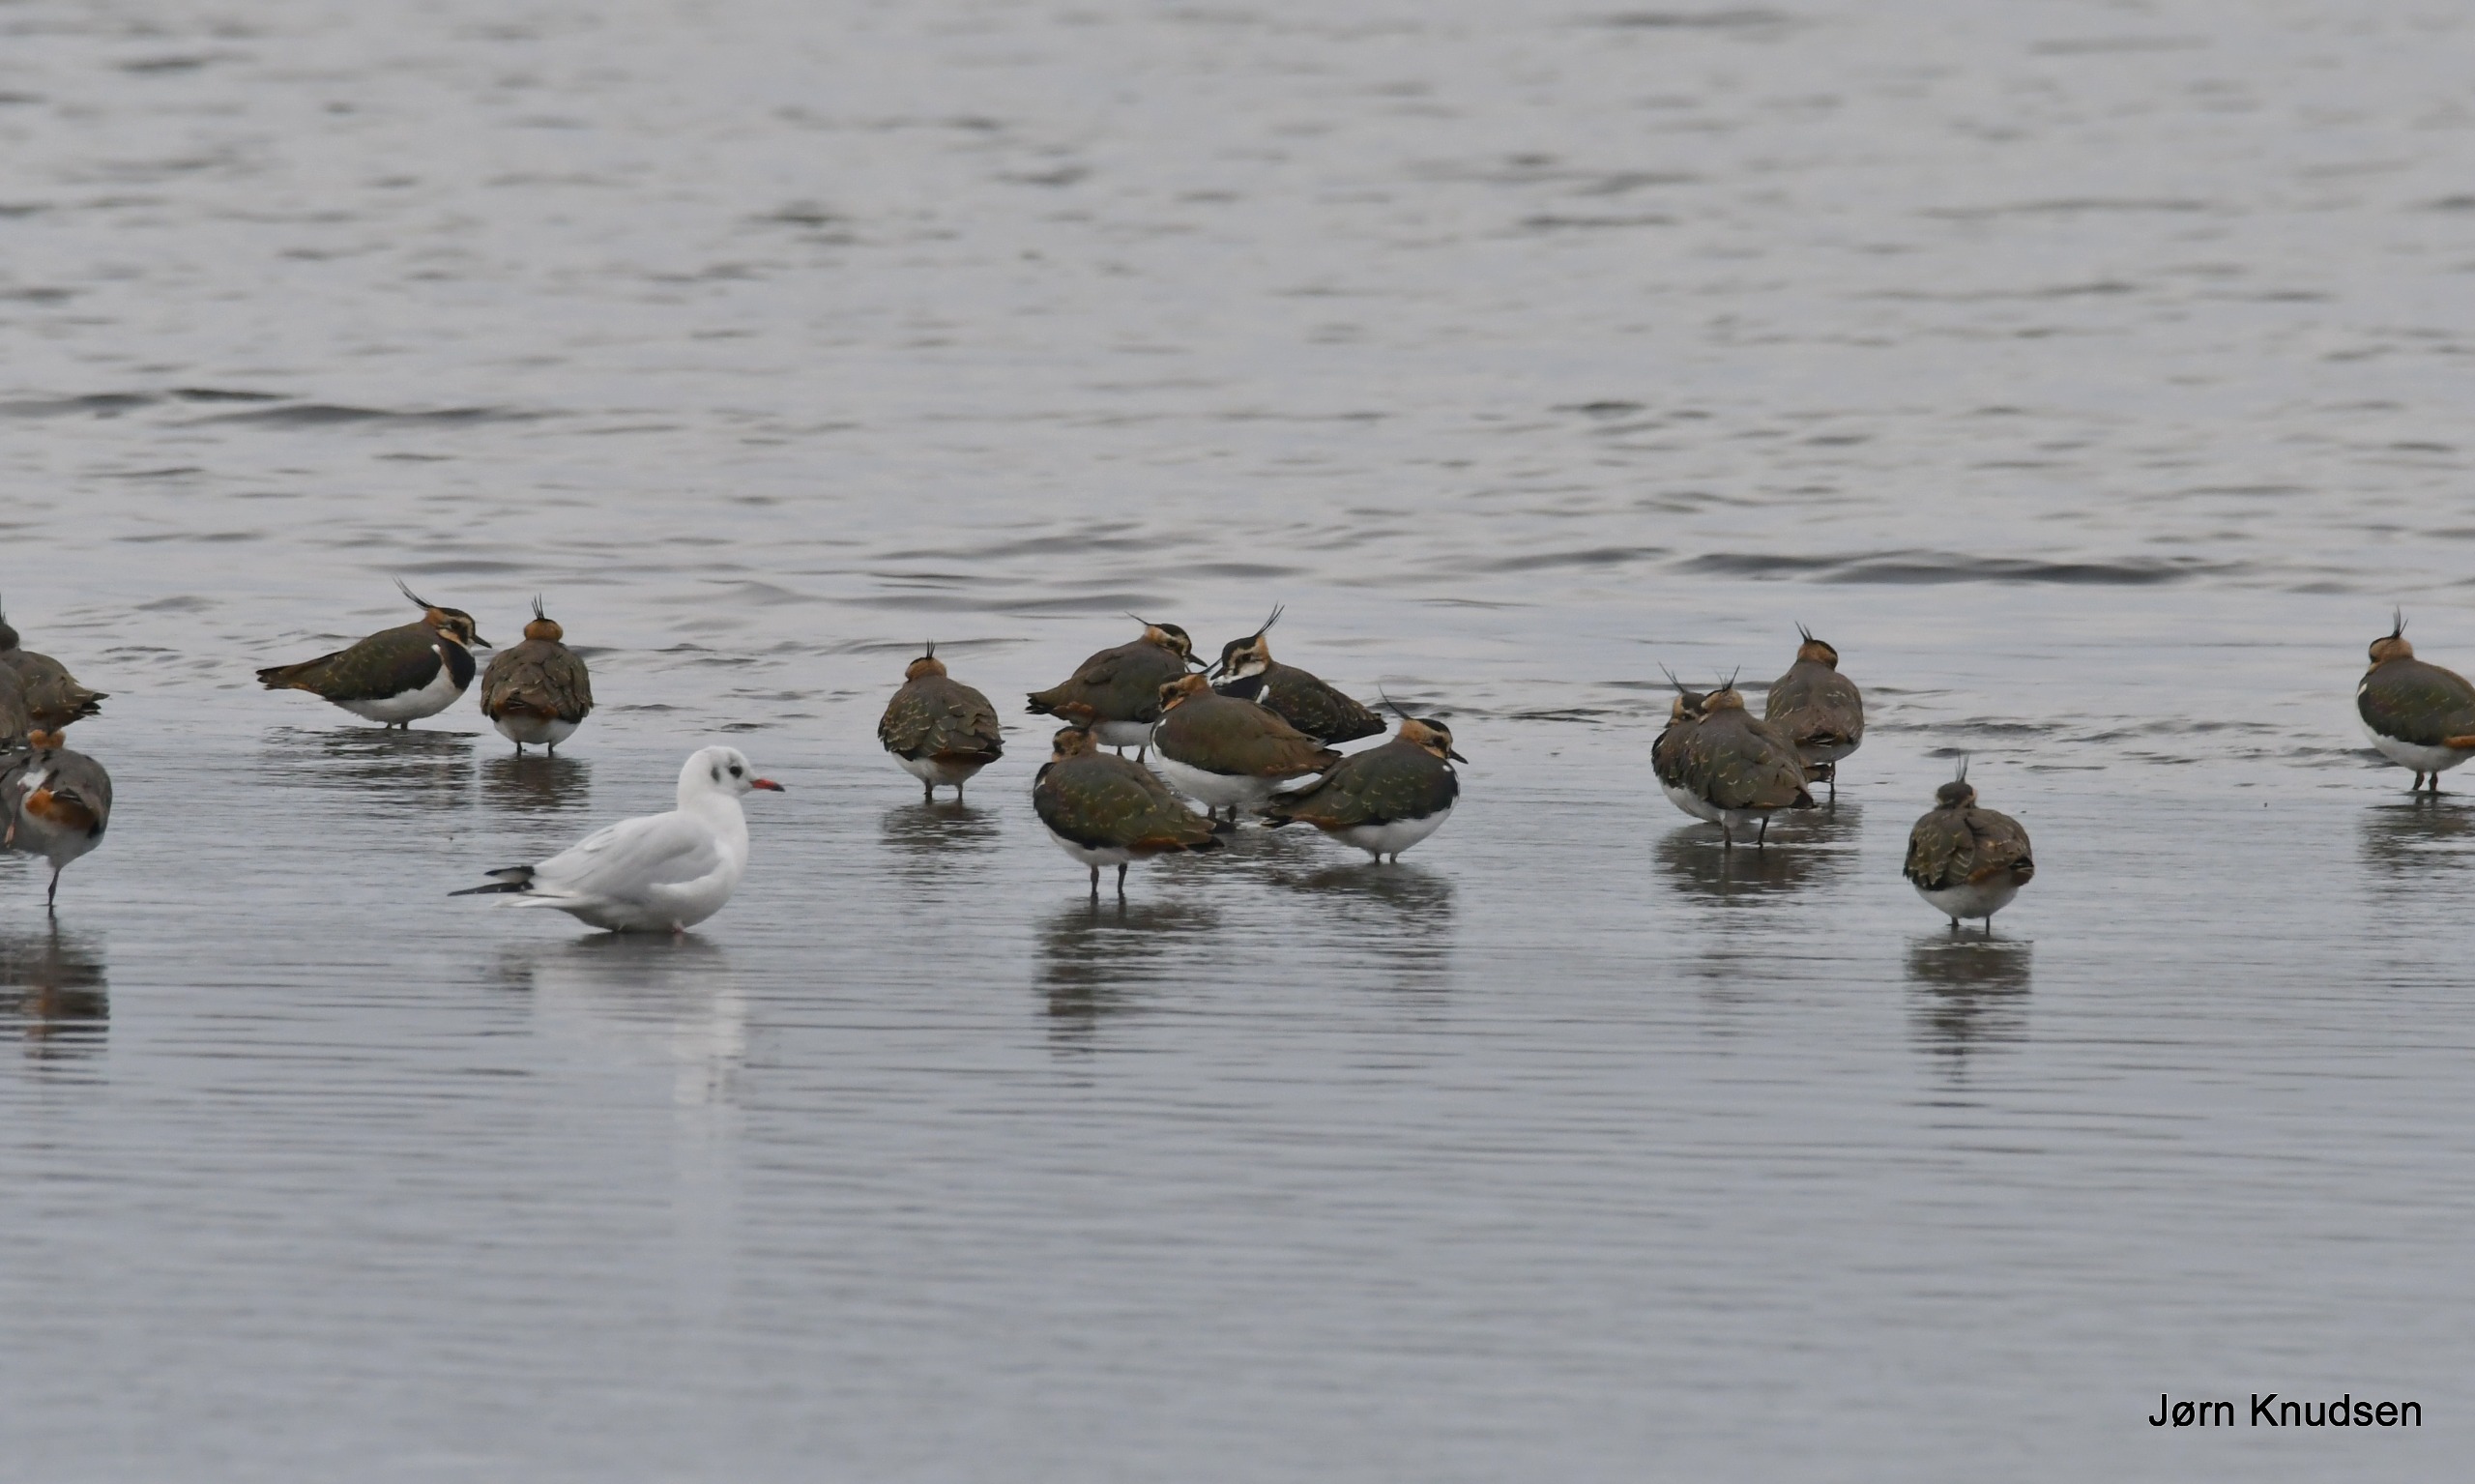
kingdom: Animalia
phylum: Chordata
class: Aves
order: Charadriiformes
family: Charadriidae
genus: Vanellus
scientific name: Vanellus vanellus
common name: Vibe
